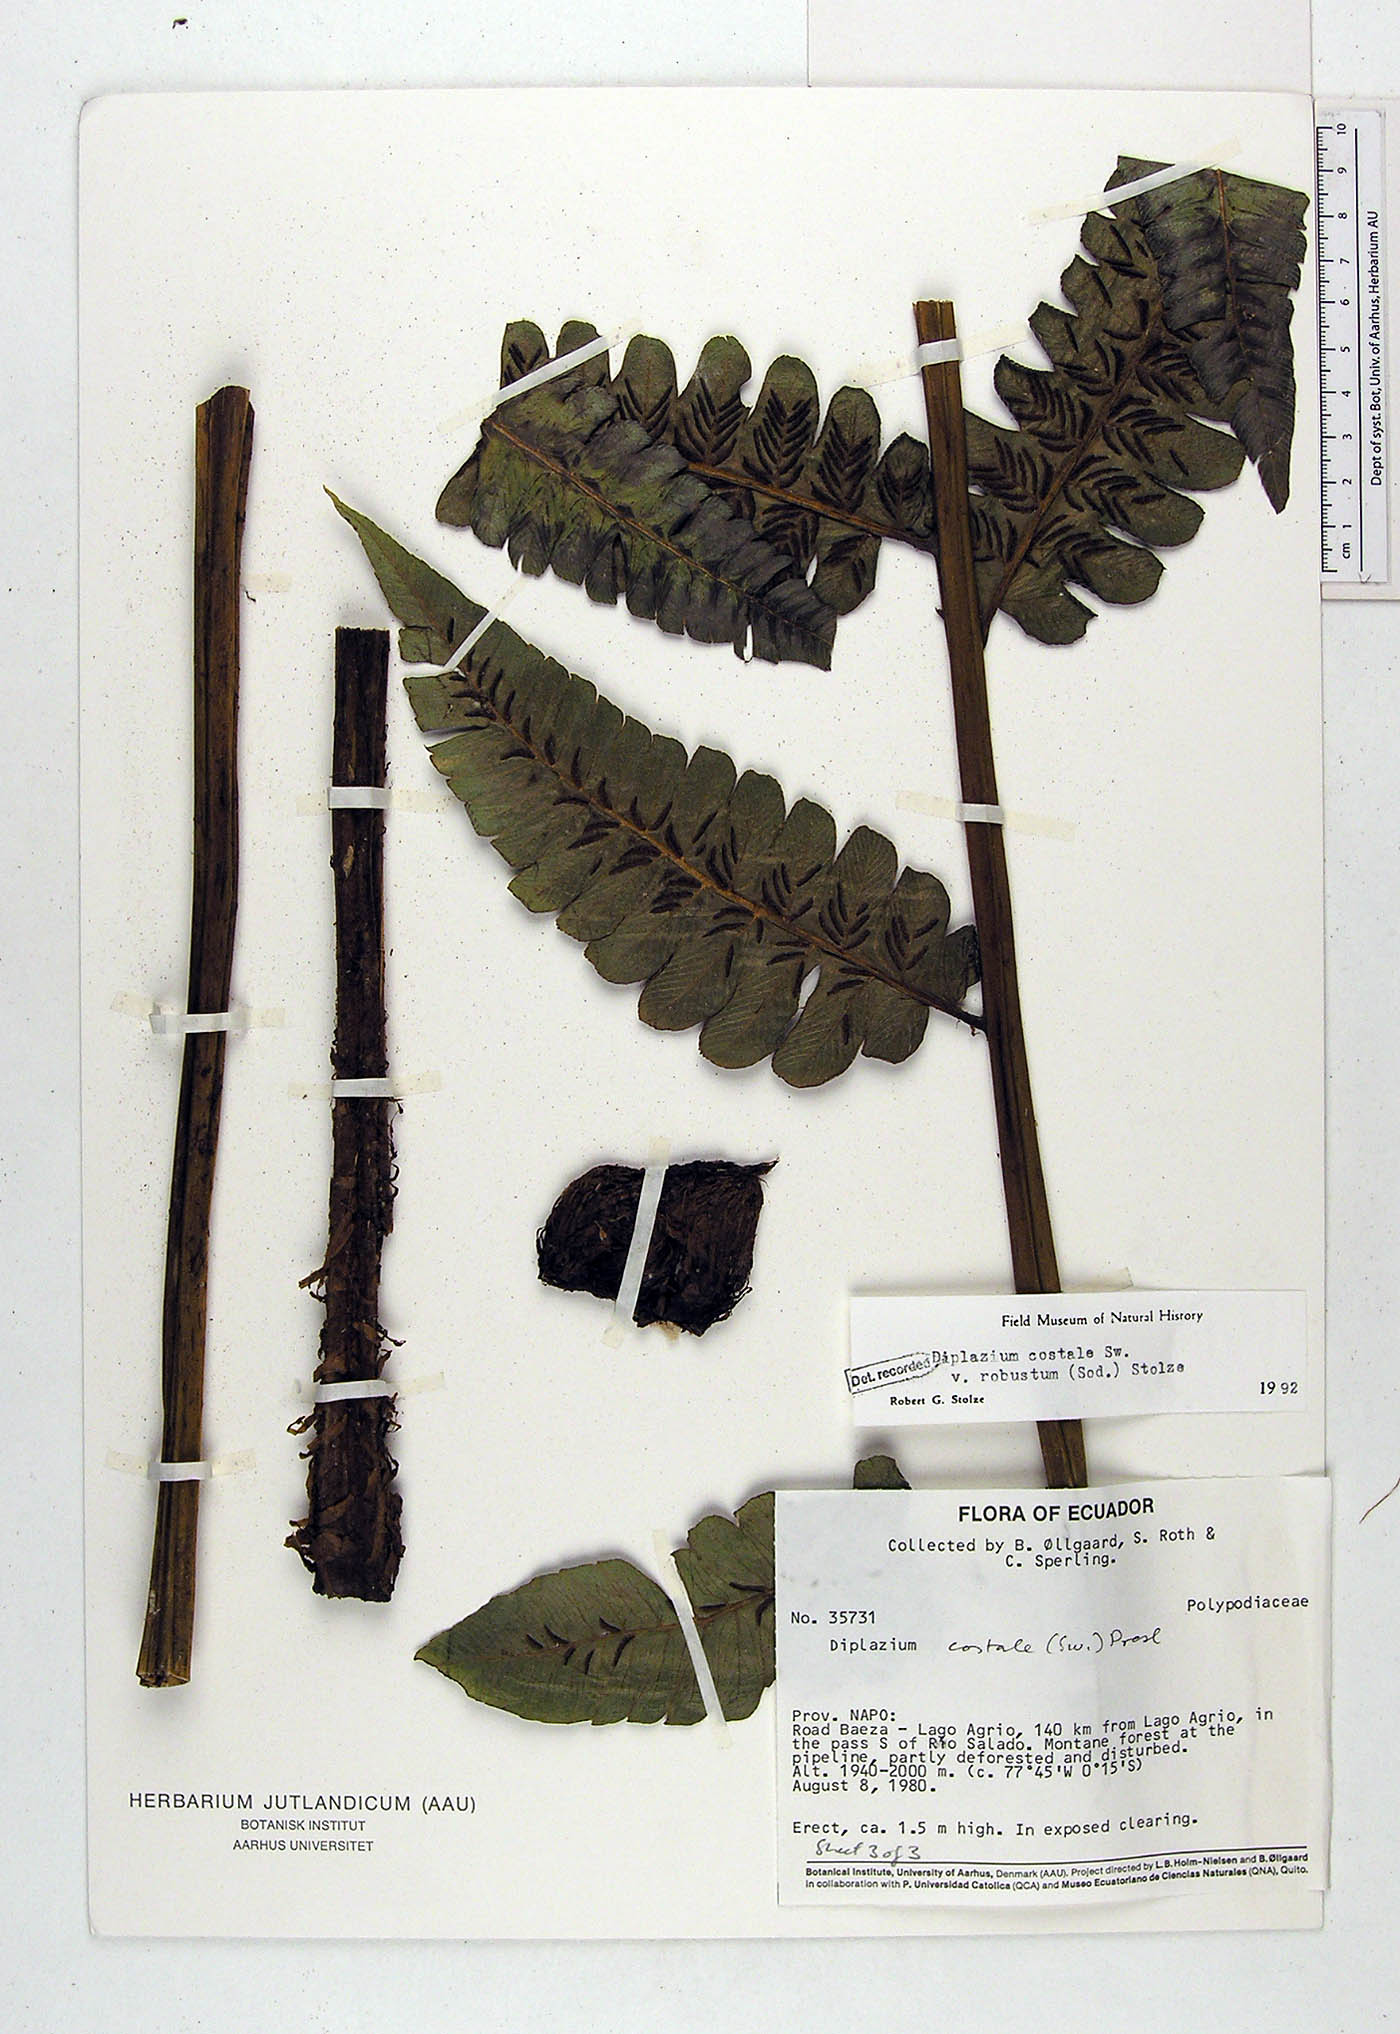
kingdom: Plantae
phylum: Tracheophyta
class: Polypodiopsida
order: Polypodiales
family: Athyriaceae
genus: Diplazium
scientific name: Diplazium costale
